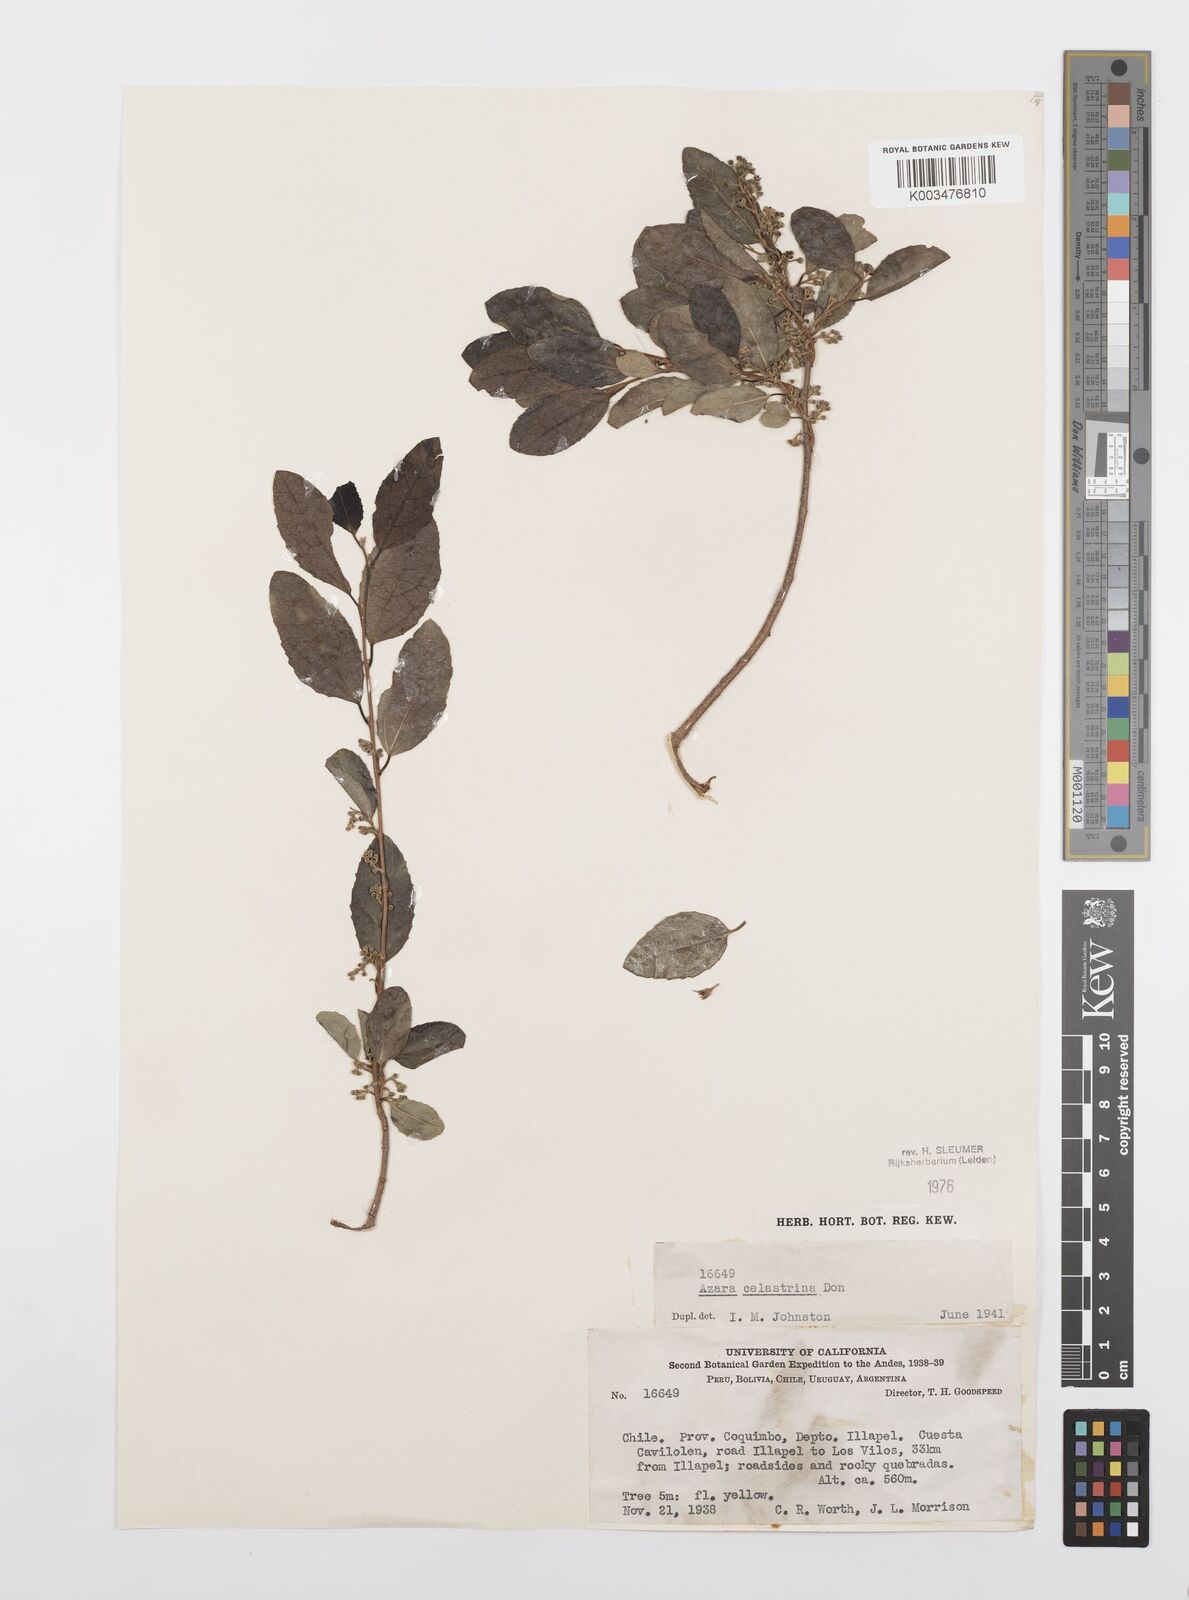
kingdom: Plantae
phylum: Tracheophyta
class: Magnoliopsida
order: Malpighiales
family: Salicaceae
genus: Azara
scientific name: Azara celastrina
